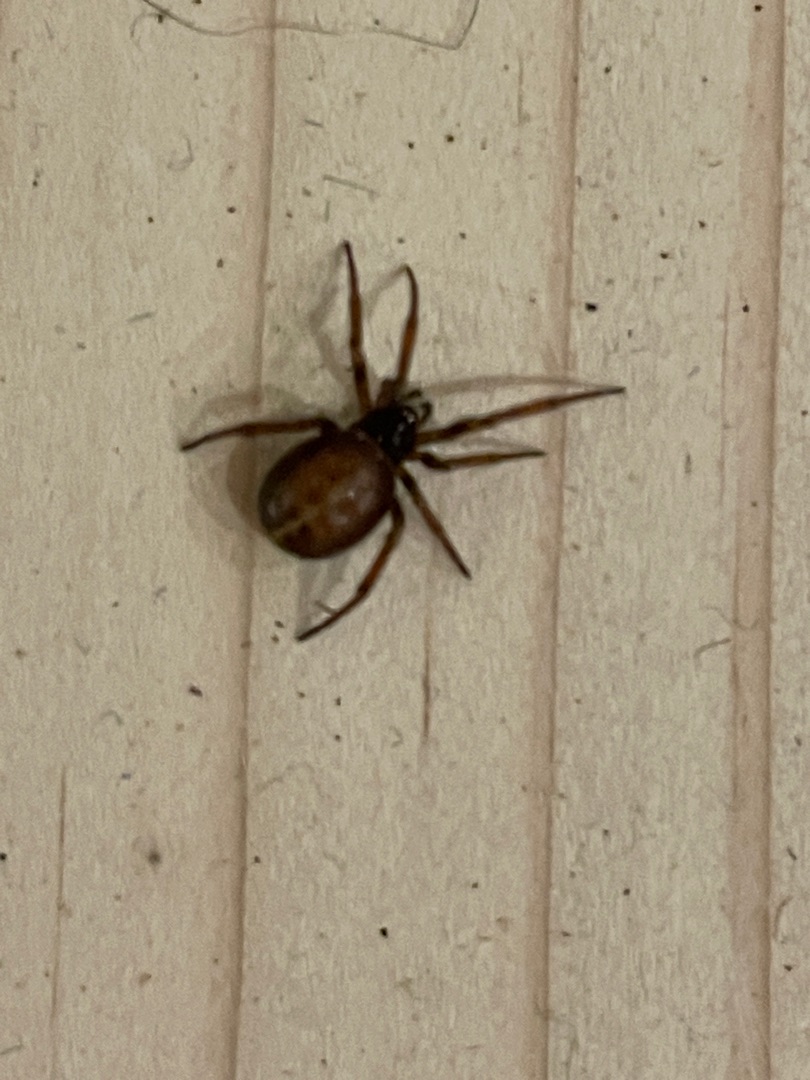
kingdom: Animalia
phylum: Arthropoda
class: Arachnida
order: Araneae
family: Theridiidae
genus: Steatoda
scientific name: Steatoda bipunctata
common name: Fedtedderkop
